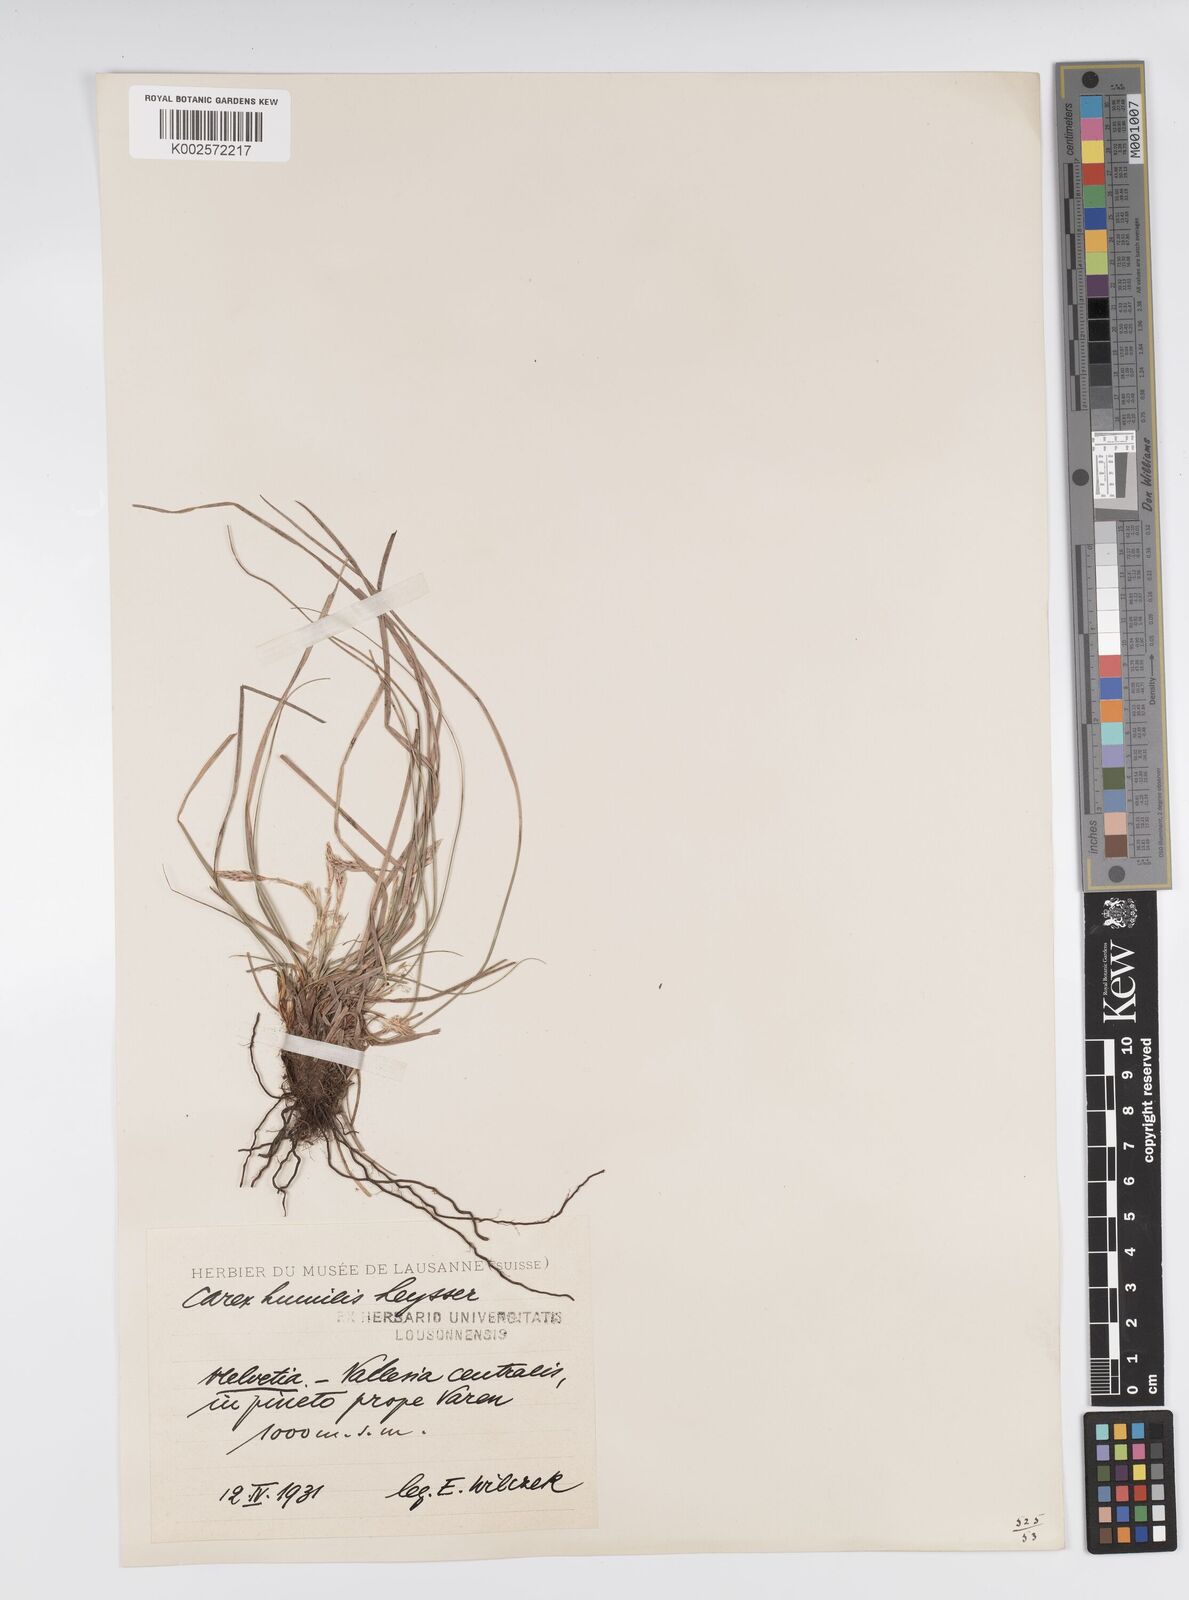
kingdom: Plantae
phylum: Tracheophyta
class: Liliopsida
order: Poales
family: Cyperaceae
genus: Carex
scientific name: Carex humilis
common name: Dwarf sedge
